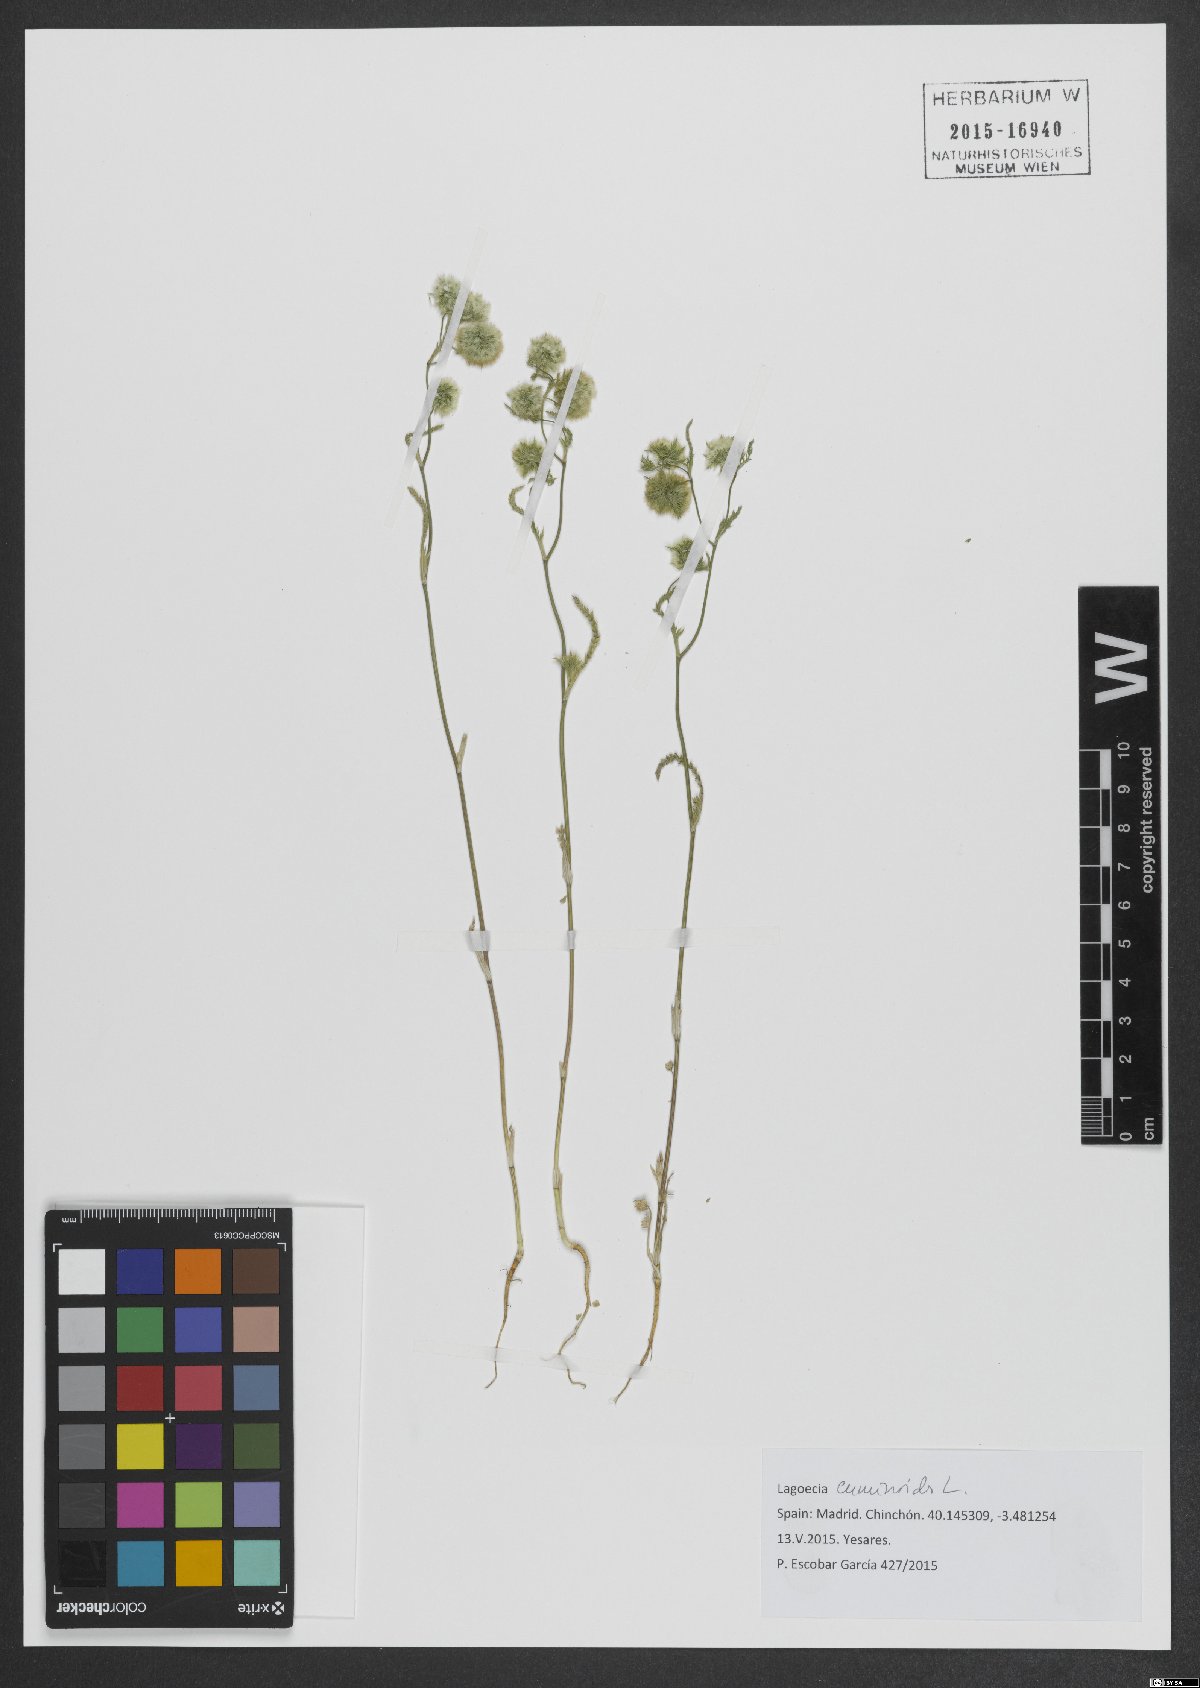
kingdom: Plantae
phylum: Tracheophyta
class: Magnoliopsida
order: Apiales
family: Apiaceae
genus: Lagoecia
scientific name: Lagoecia cuminoides
